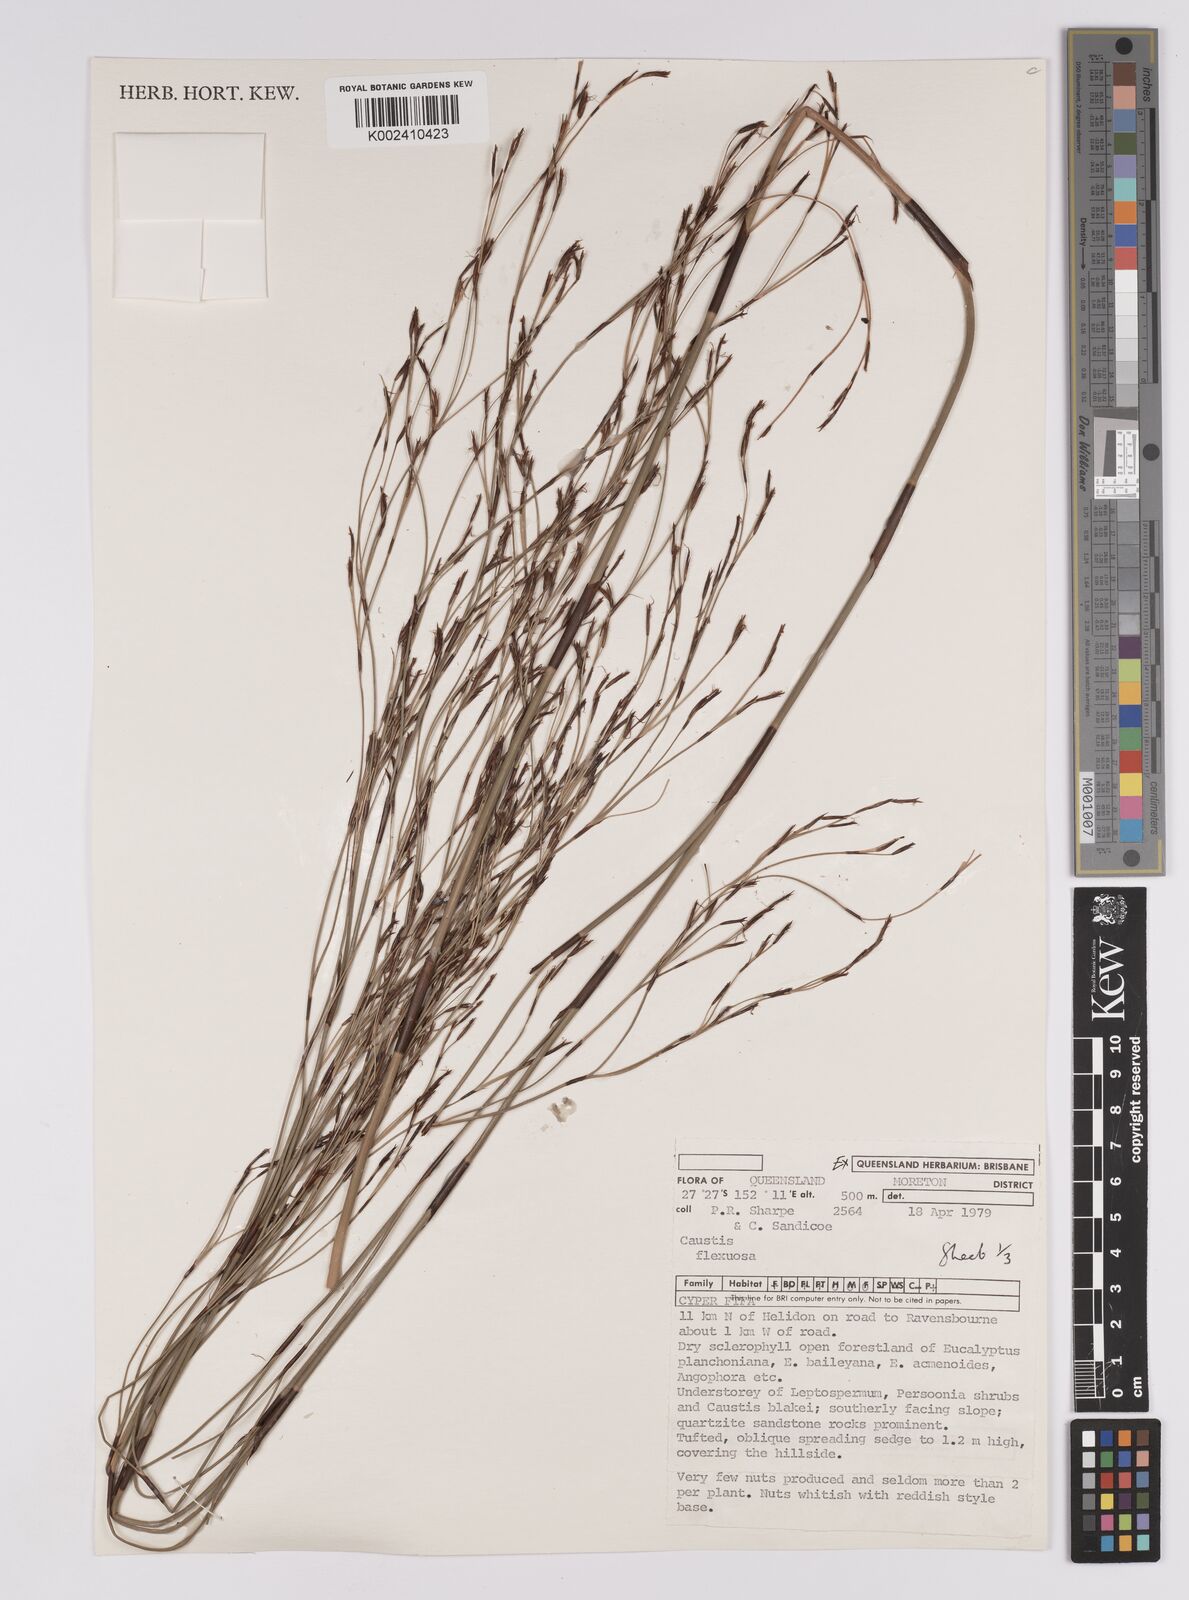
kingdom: Plantae
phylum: Tracheophyta
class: Liliopsida
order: Poales
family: Cyperaceae
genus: Caustis
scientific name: Caustis flexuosa
